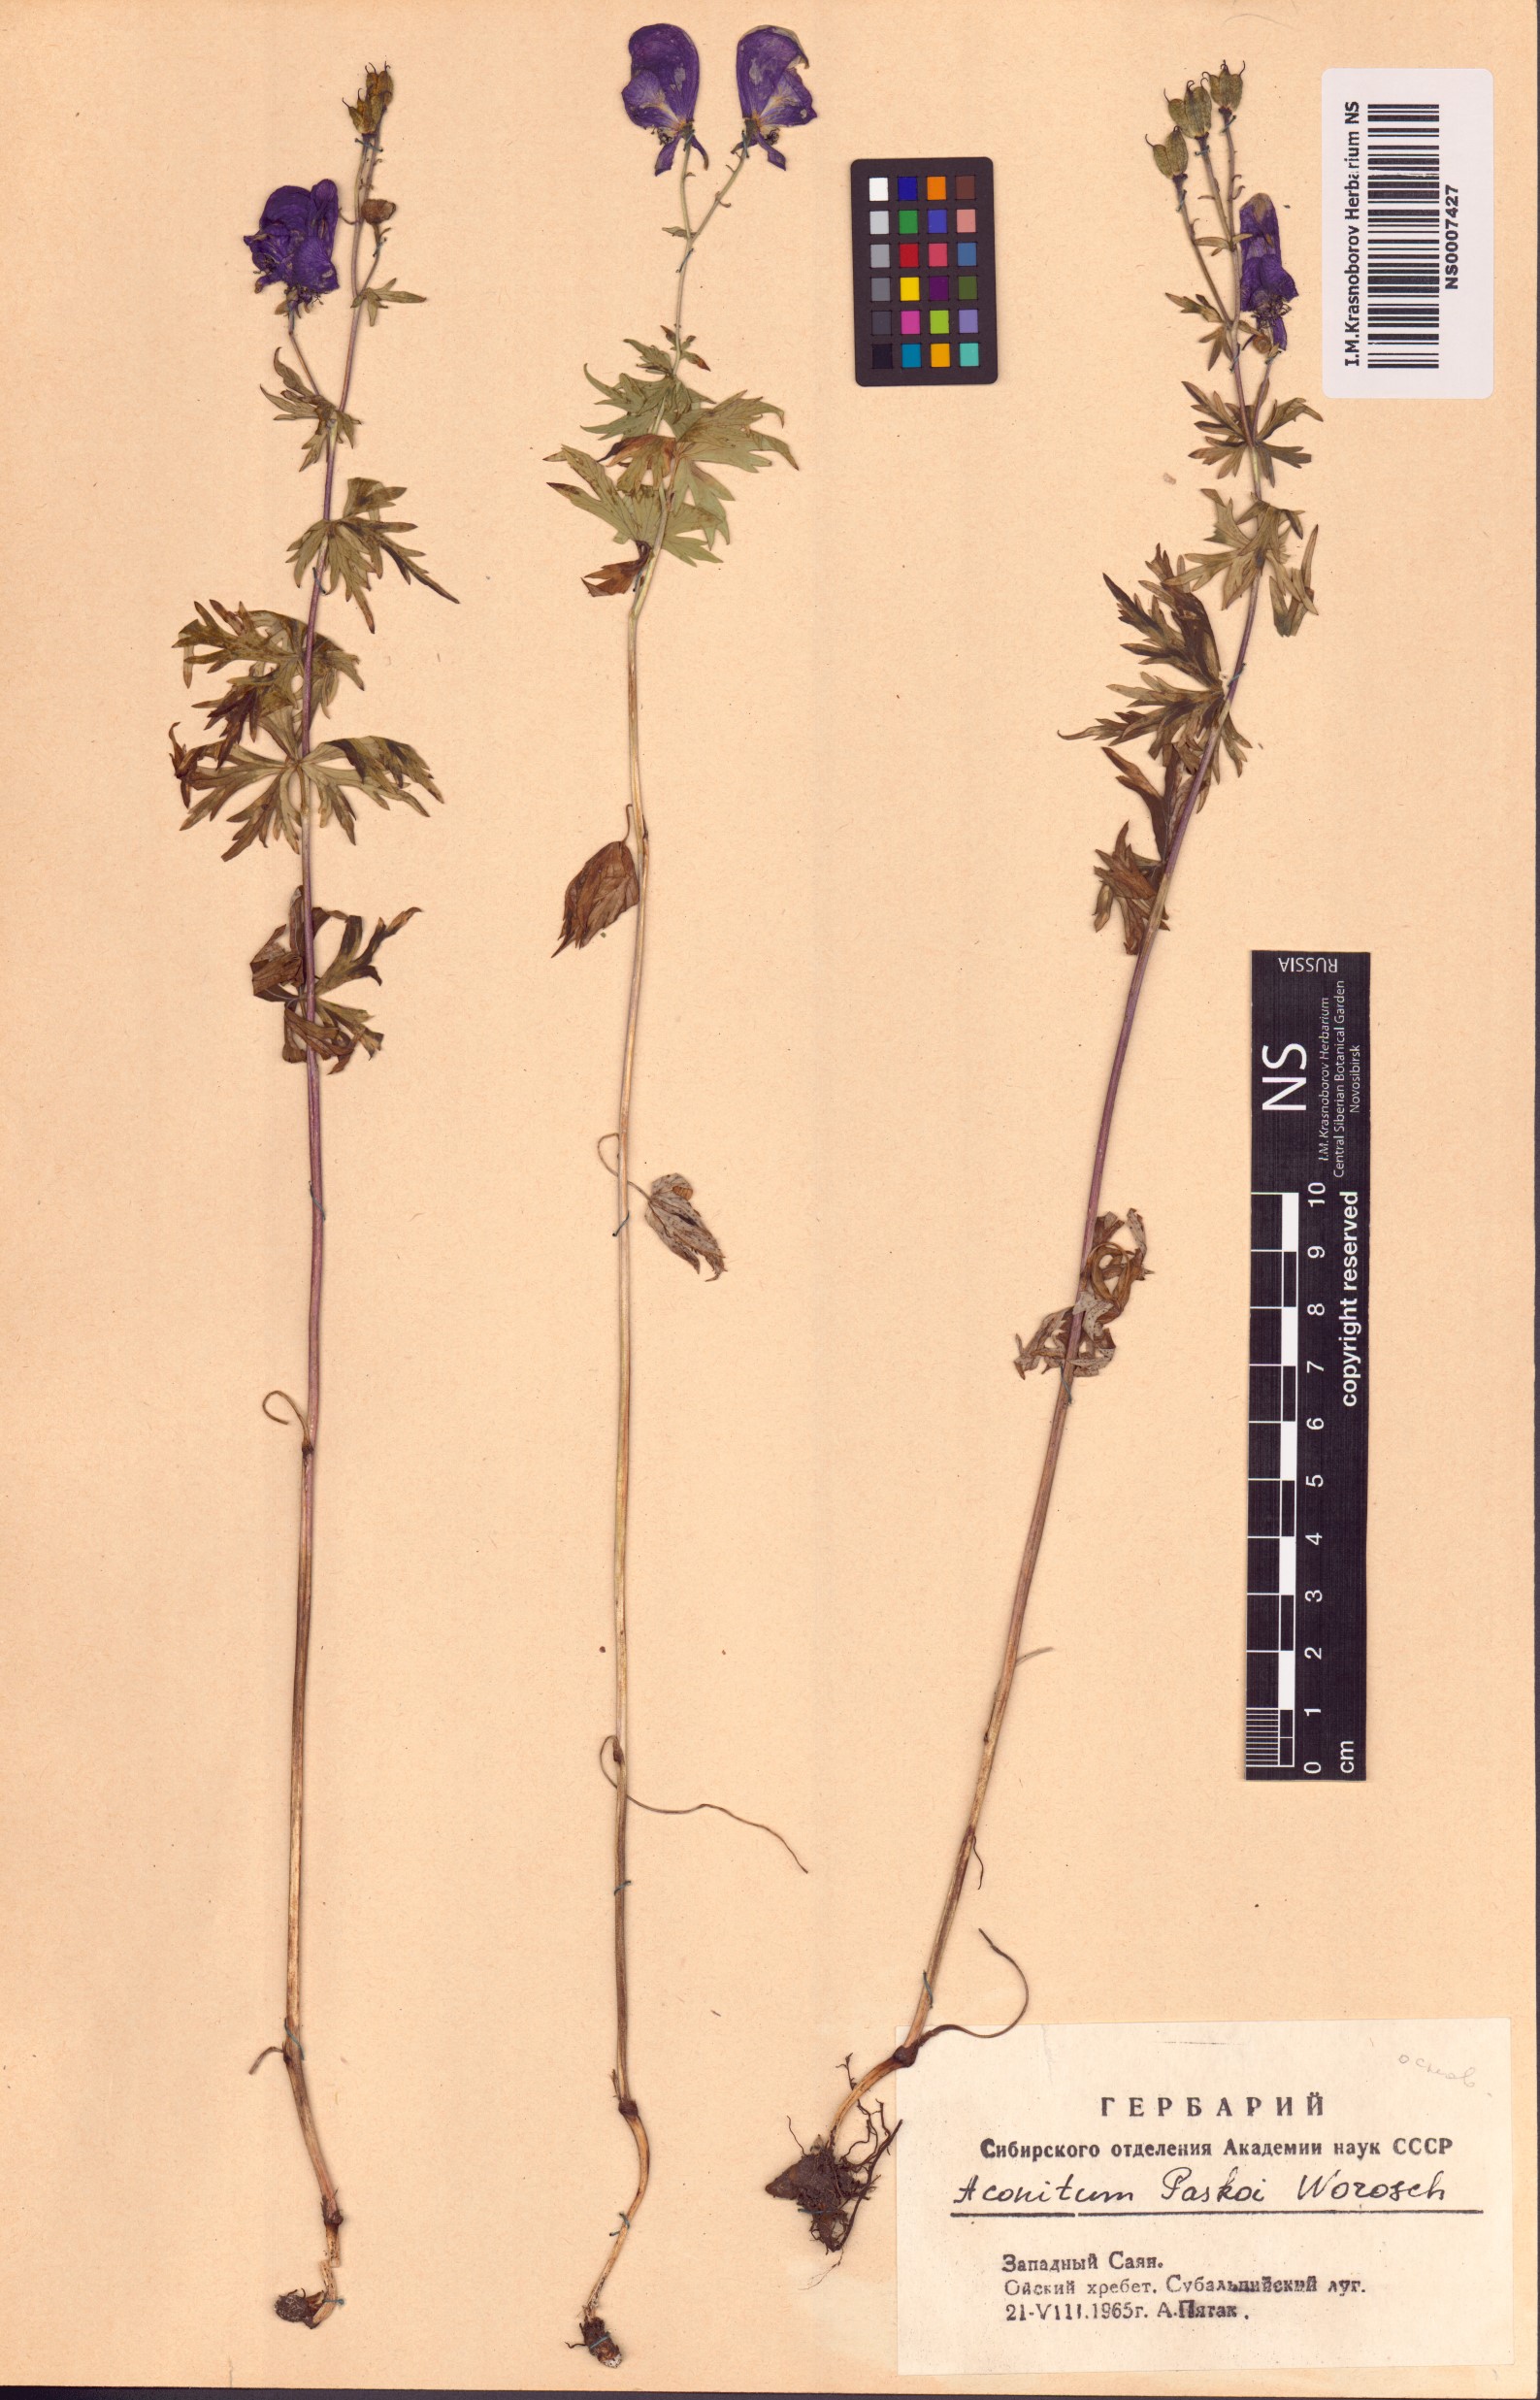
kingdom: Plantae
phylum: Tracheophyta
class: Magnoliopsida
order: Ranunculales
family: Ranunculaceae
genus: Aconitum
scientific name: Aconitum pascoi
